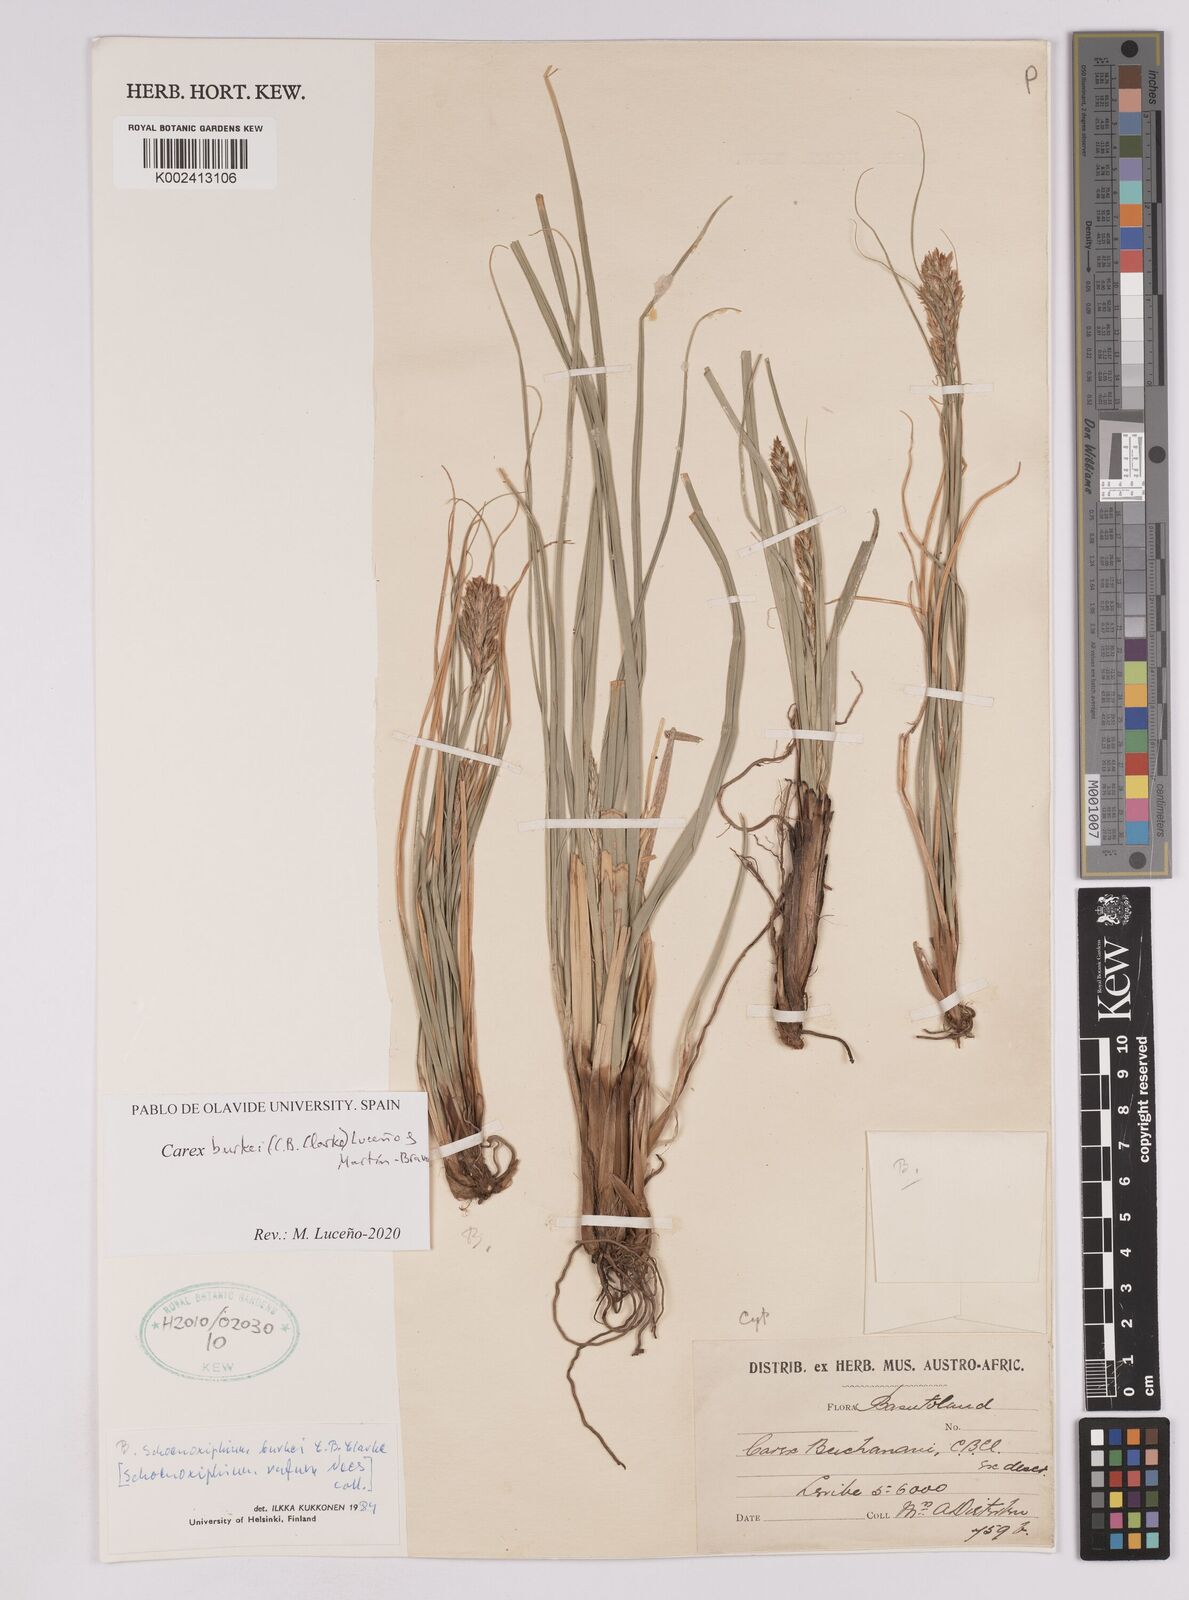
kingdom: Plantae
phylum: Tracheophyta
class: Liliopsida
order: Poales
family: Cyperaceae
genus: Carex
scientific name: Carex burkei
